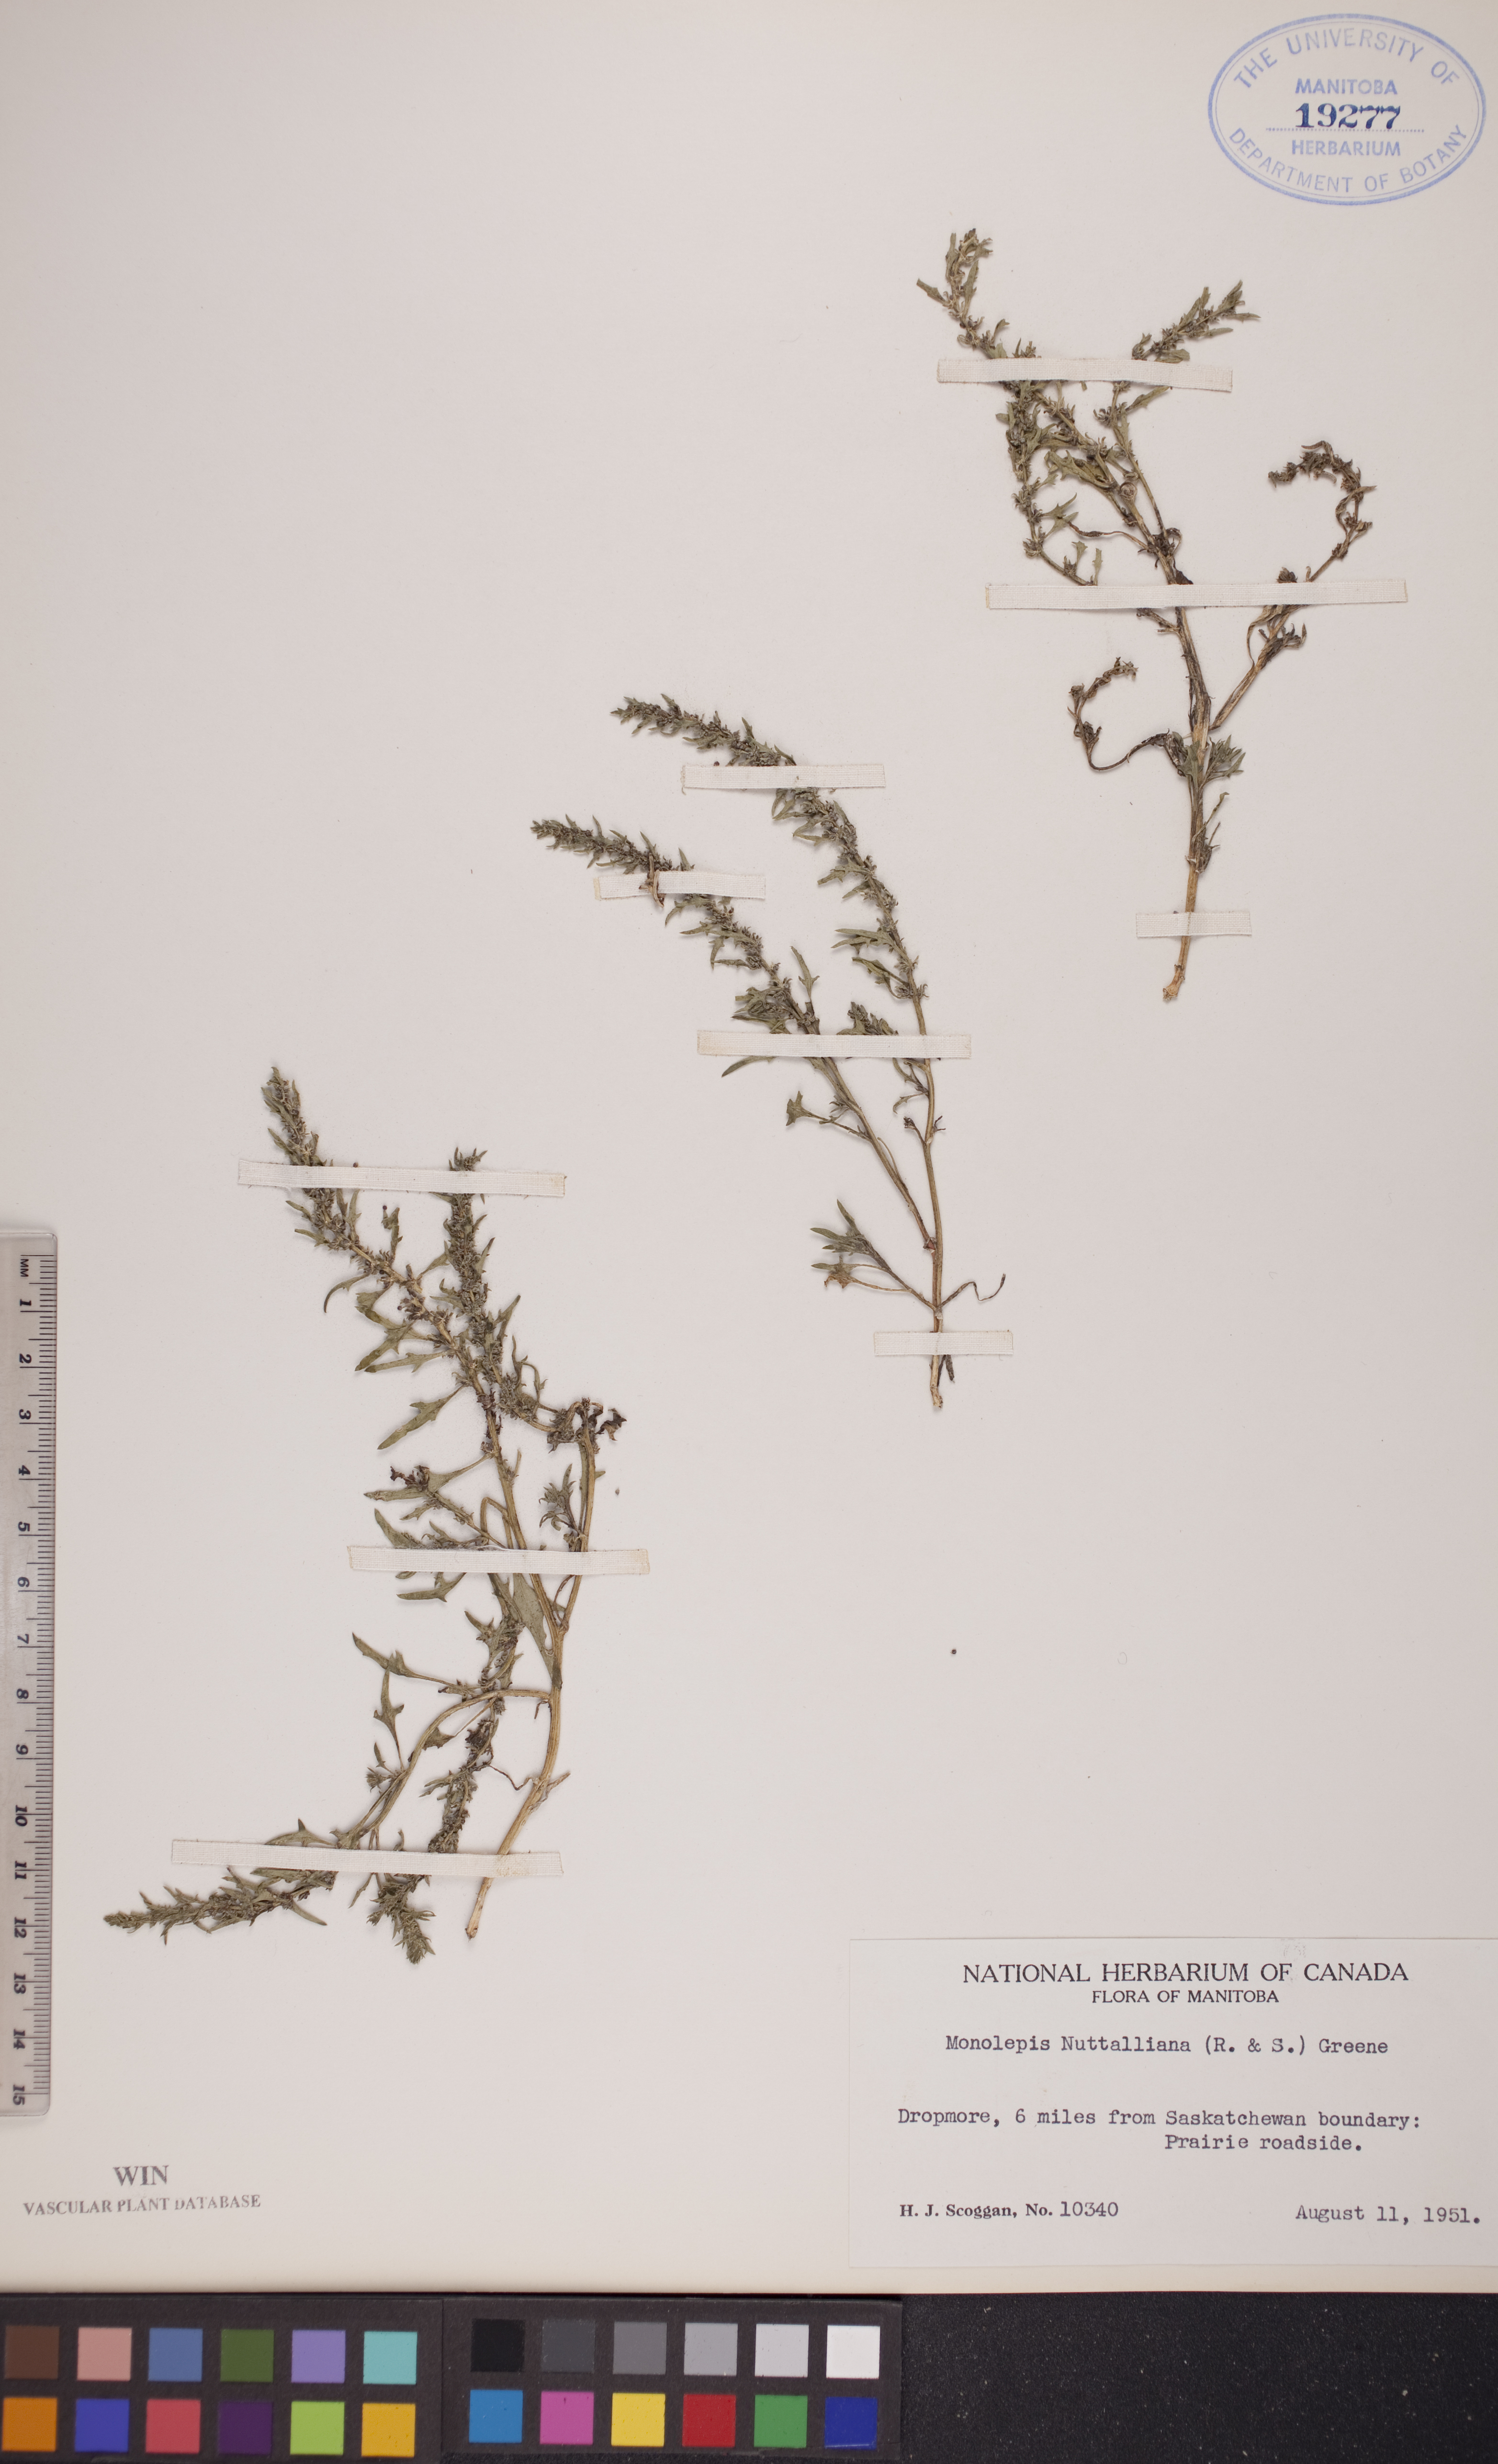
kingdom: Plantae
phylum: Tracheophyta
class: Magnoliopsida
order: Caryophyllales
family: Amaranthaceae
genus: Blitum
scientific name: Blitum nuttallianum
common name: Poverty-weed
